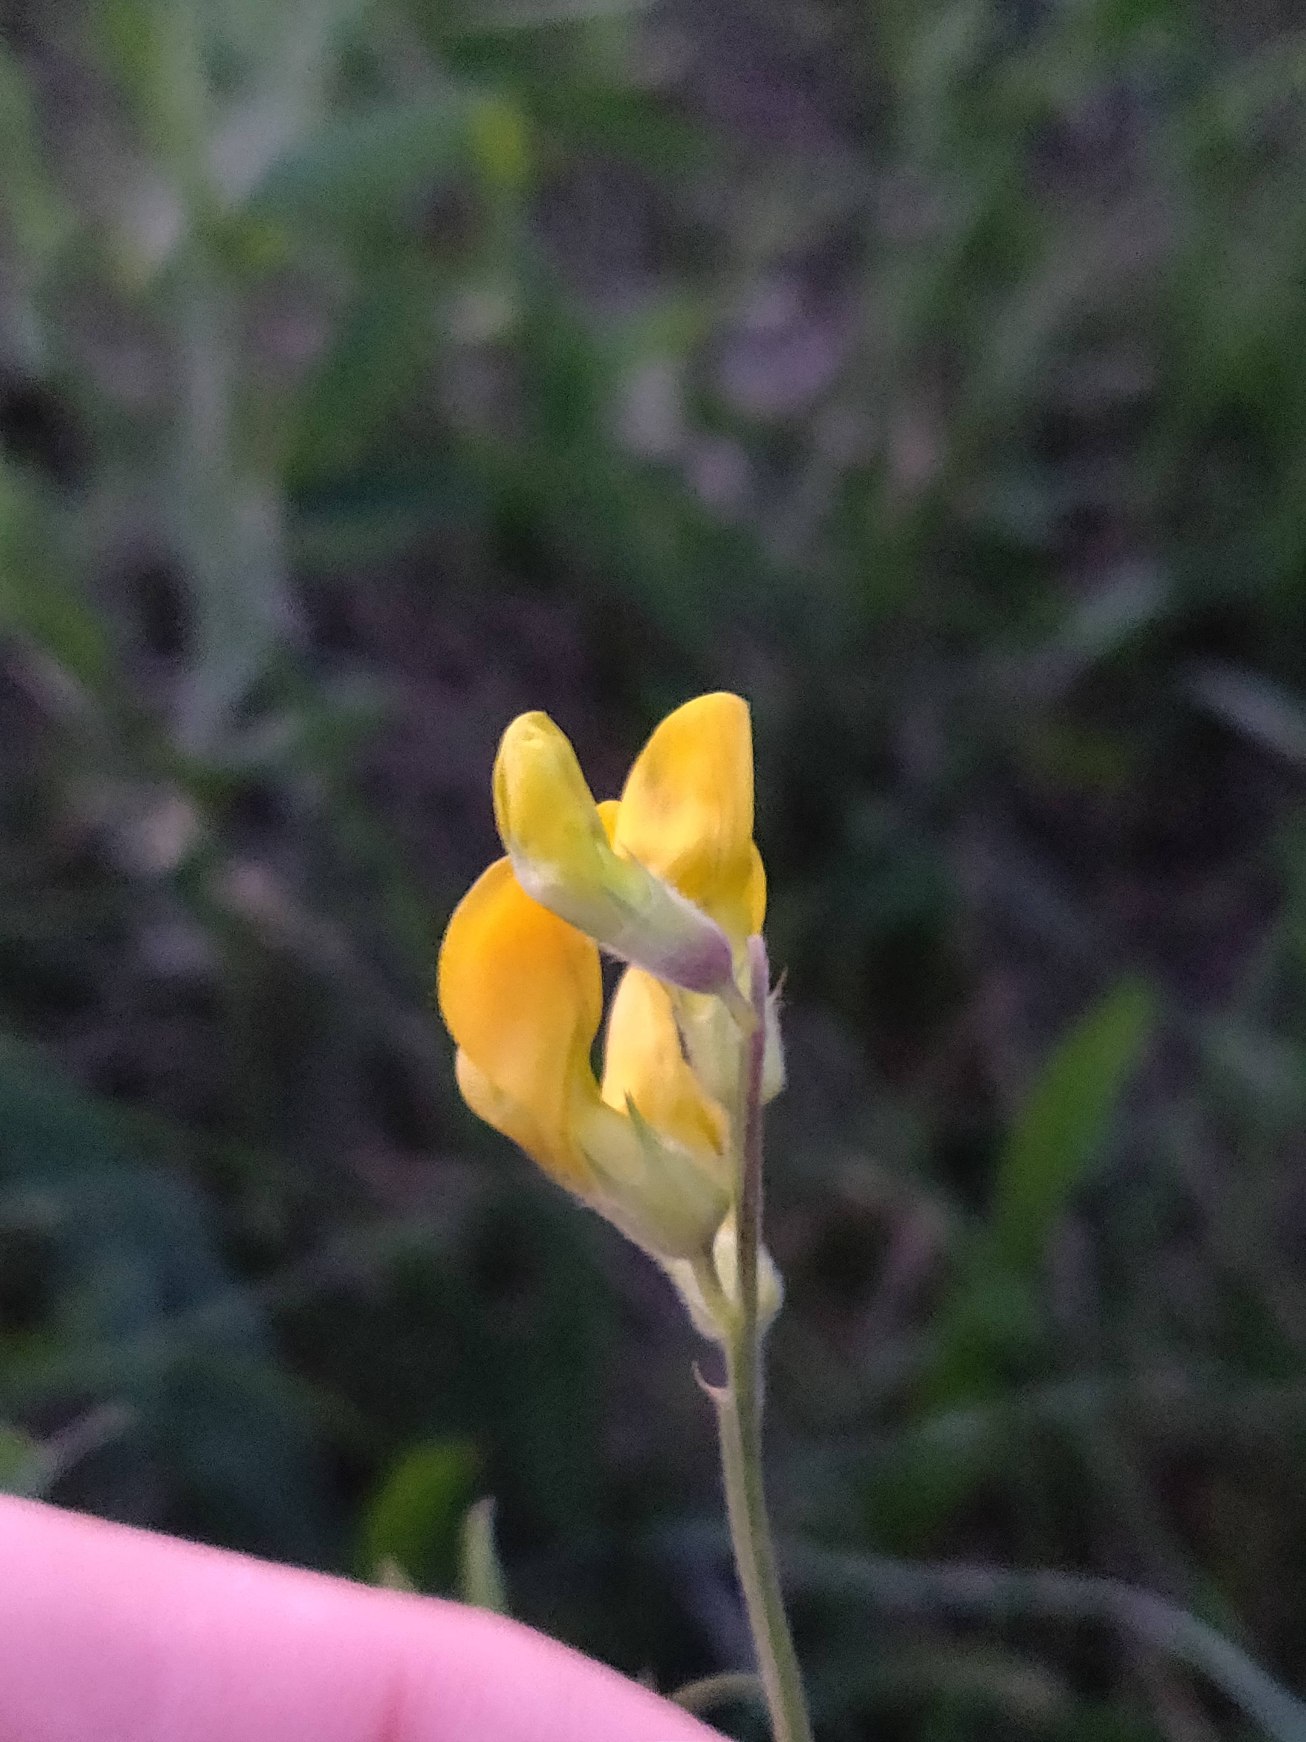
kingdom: Plantae
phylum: Tracheophyta
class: Magnoliopsida
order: Fabales
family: Fabaceae
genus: Lathyrus
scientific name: Lathyrus pratensis
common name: Gul fladbælg
